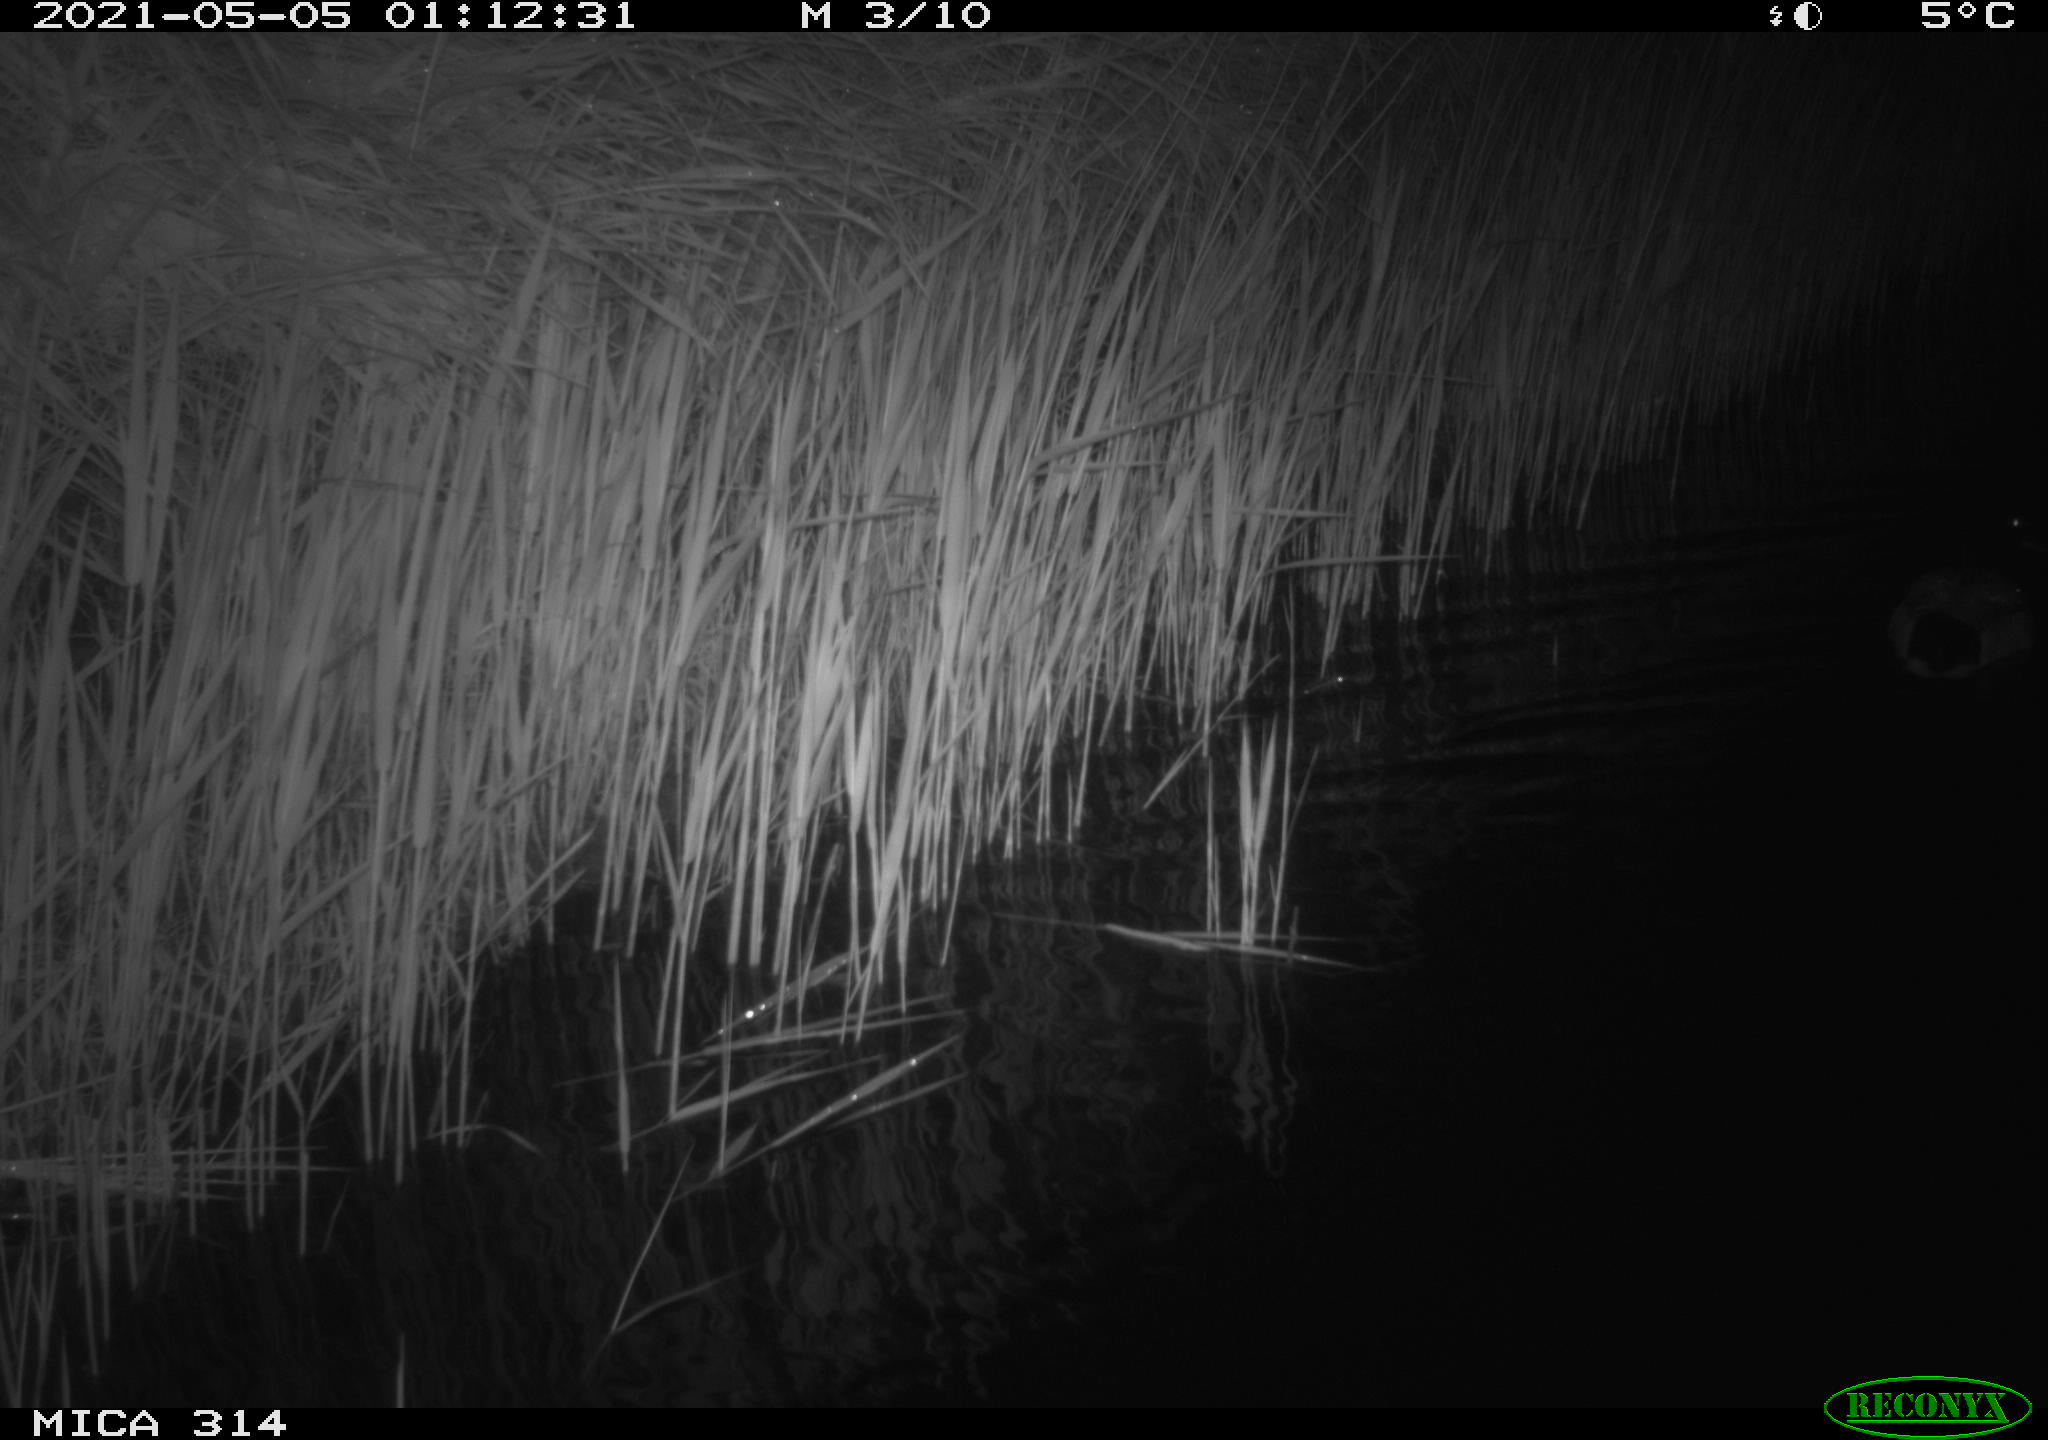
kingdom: Animalia
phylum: Chordata
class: Aves
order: Anseriformes
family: Anatidae
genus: Anas
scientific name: Anas platyrhynchos
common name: Mallard
